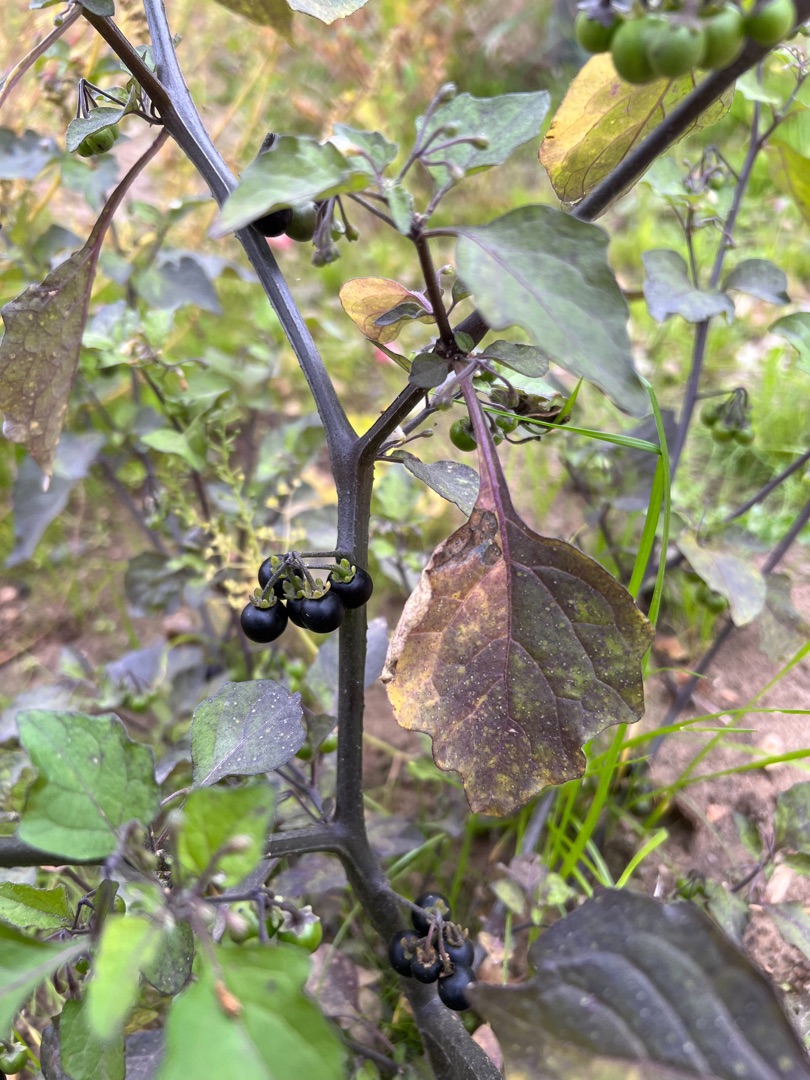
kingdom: Plantae
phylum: Tracheophyta
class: Magnoliopsida
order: Solanales
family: Solanaceae
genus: Solanum
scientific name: Solanum nigrum
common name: Sort natskygge
